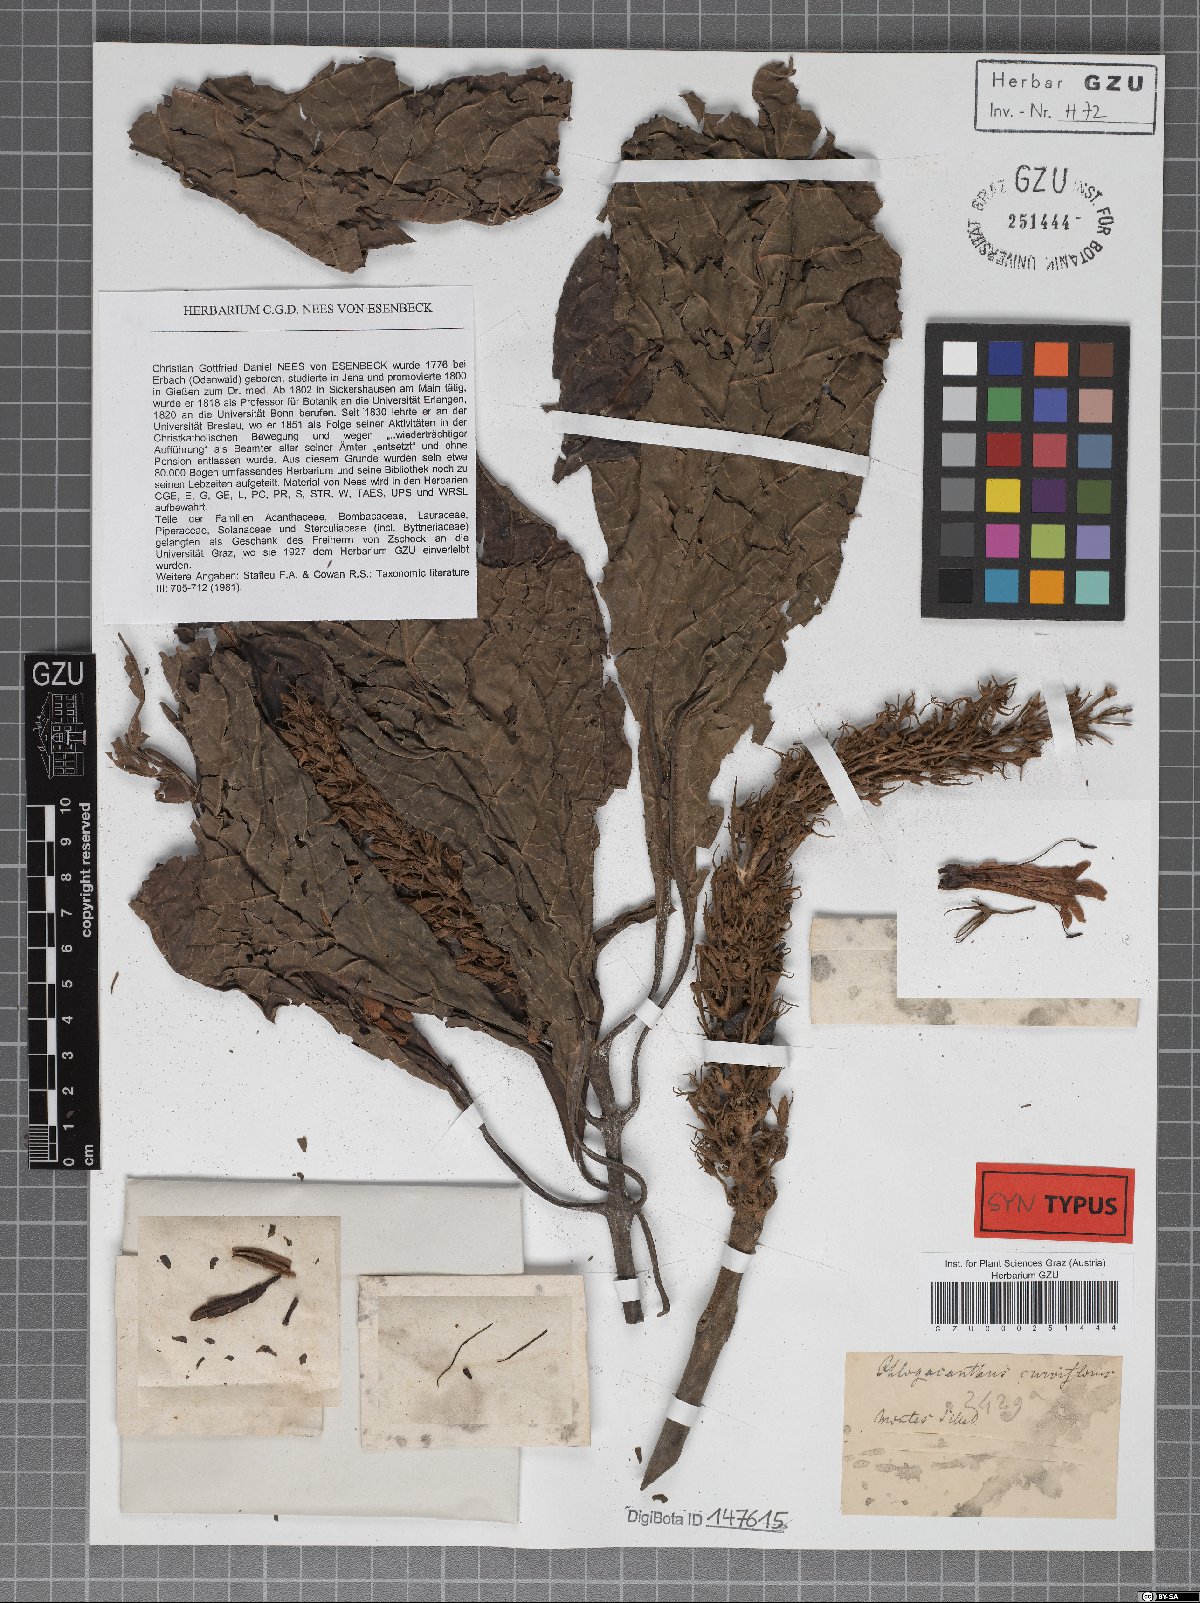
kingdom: Plantae
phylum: Tracheophyta
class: Magnoliopsida
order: Lamiales
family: Acanthaceae
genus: Justicia
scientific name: Justicia curviflora
